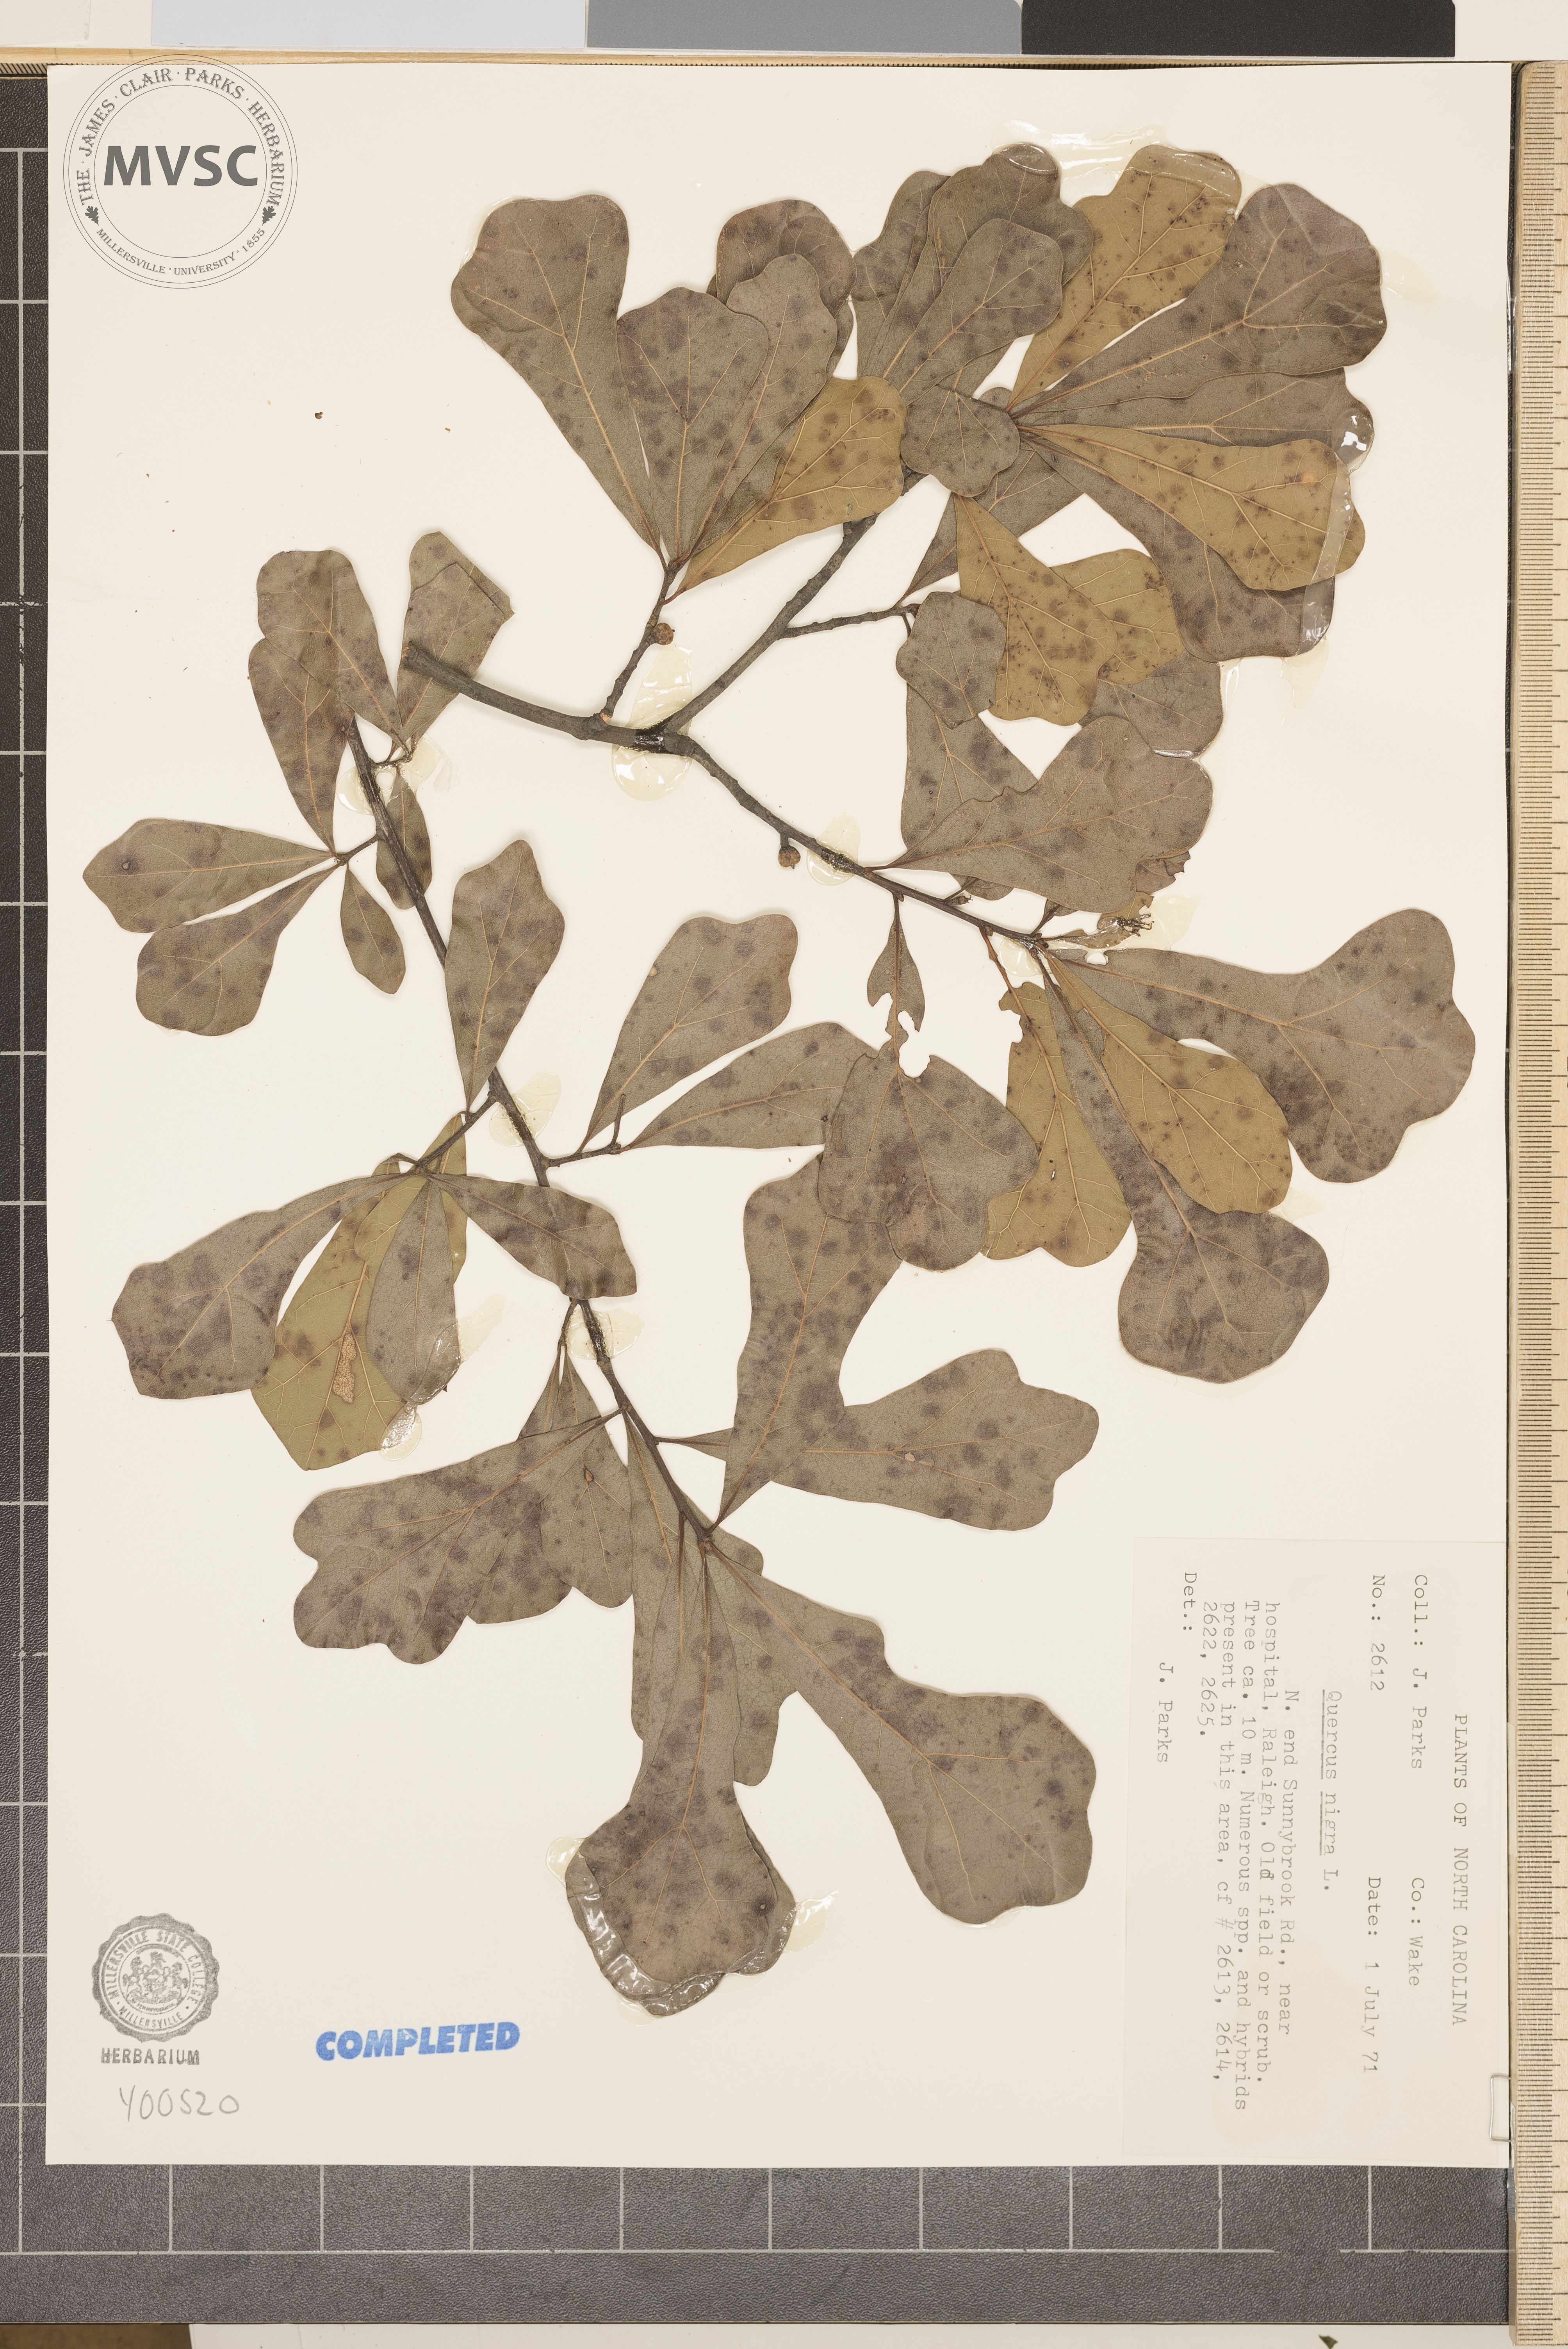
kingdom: Plantae
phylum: Tracheophyta
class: Magnoliopsida
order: Fagales
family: Fagaceae
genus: Quercus
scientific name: Quercus nigra
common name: black oak
